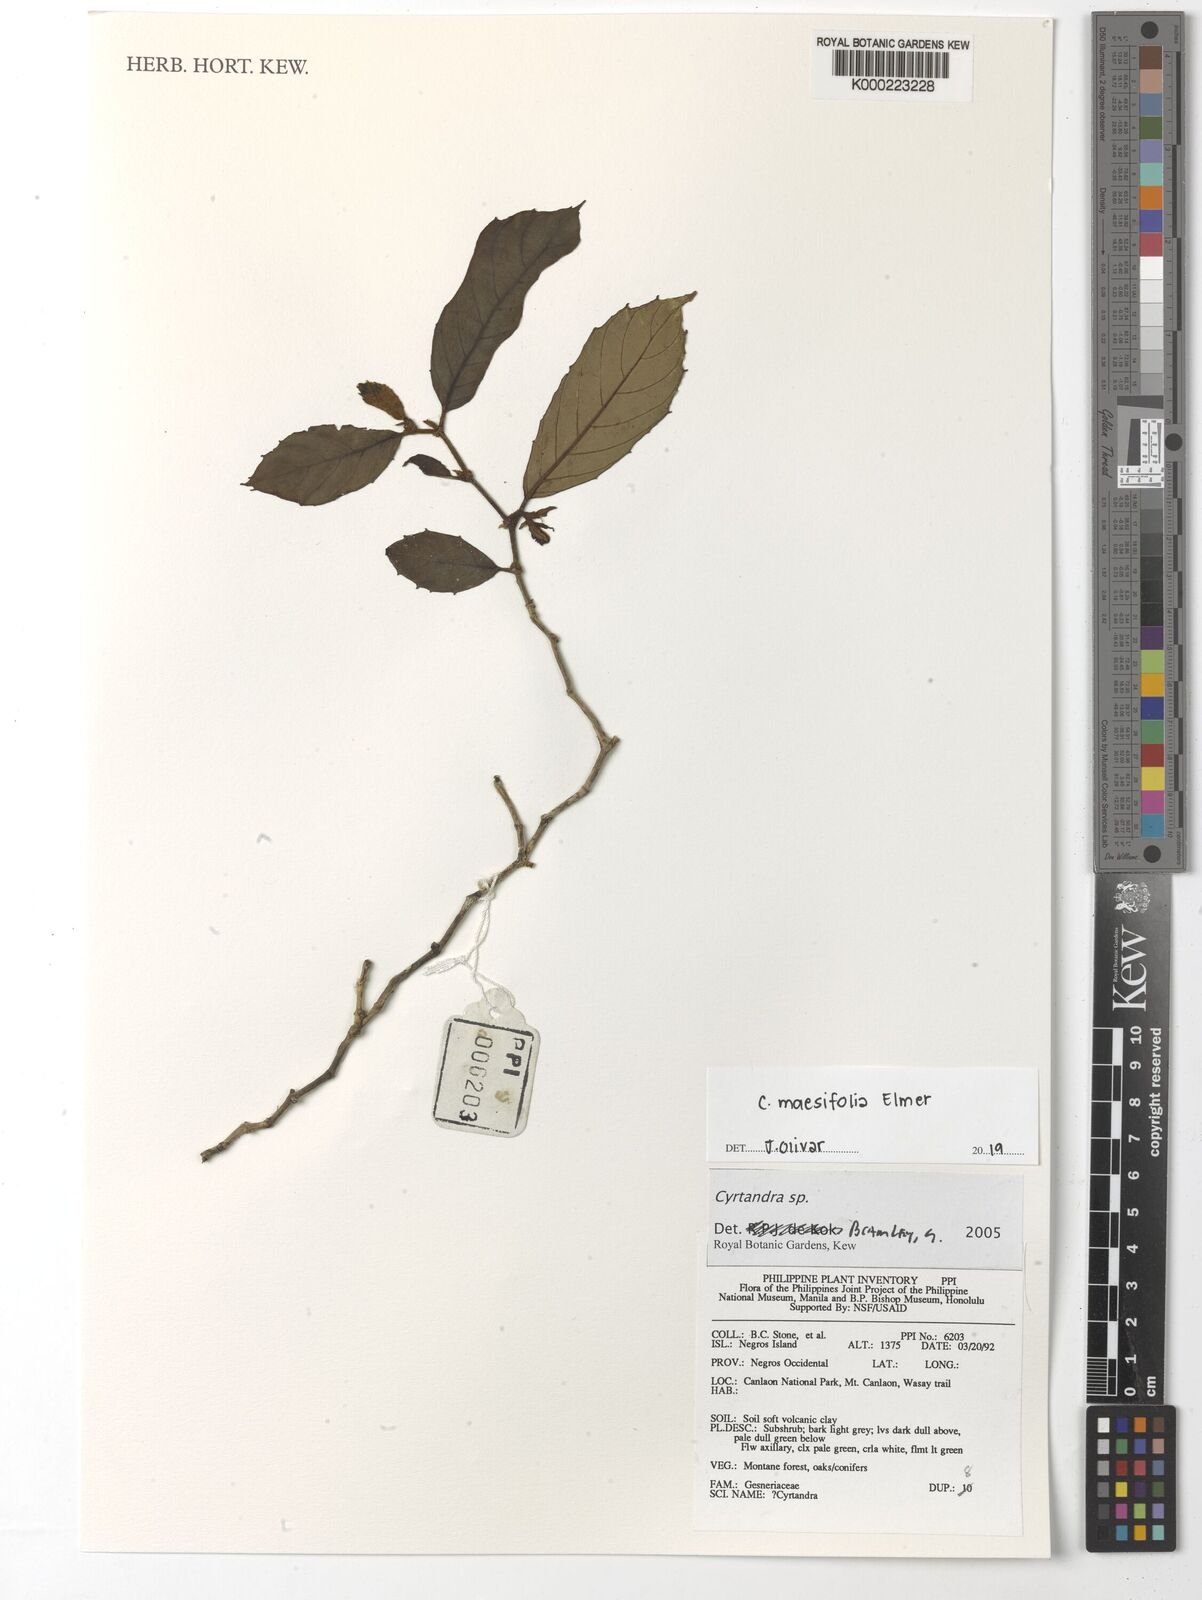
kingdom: Plantae
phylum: Tracheophyta
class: Magnoliopsida
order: Lamiales
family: Gesneriaceae
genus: Cyrtandra
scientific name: Cyrtandra
